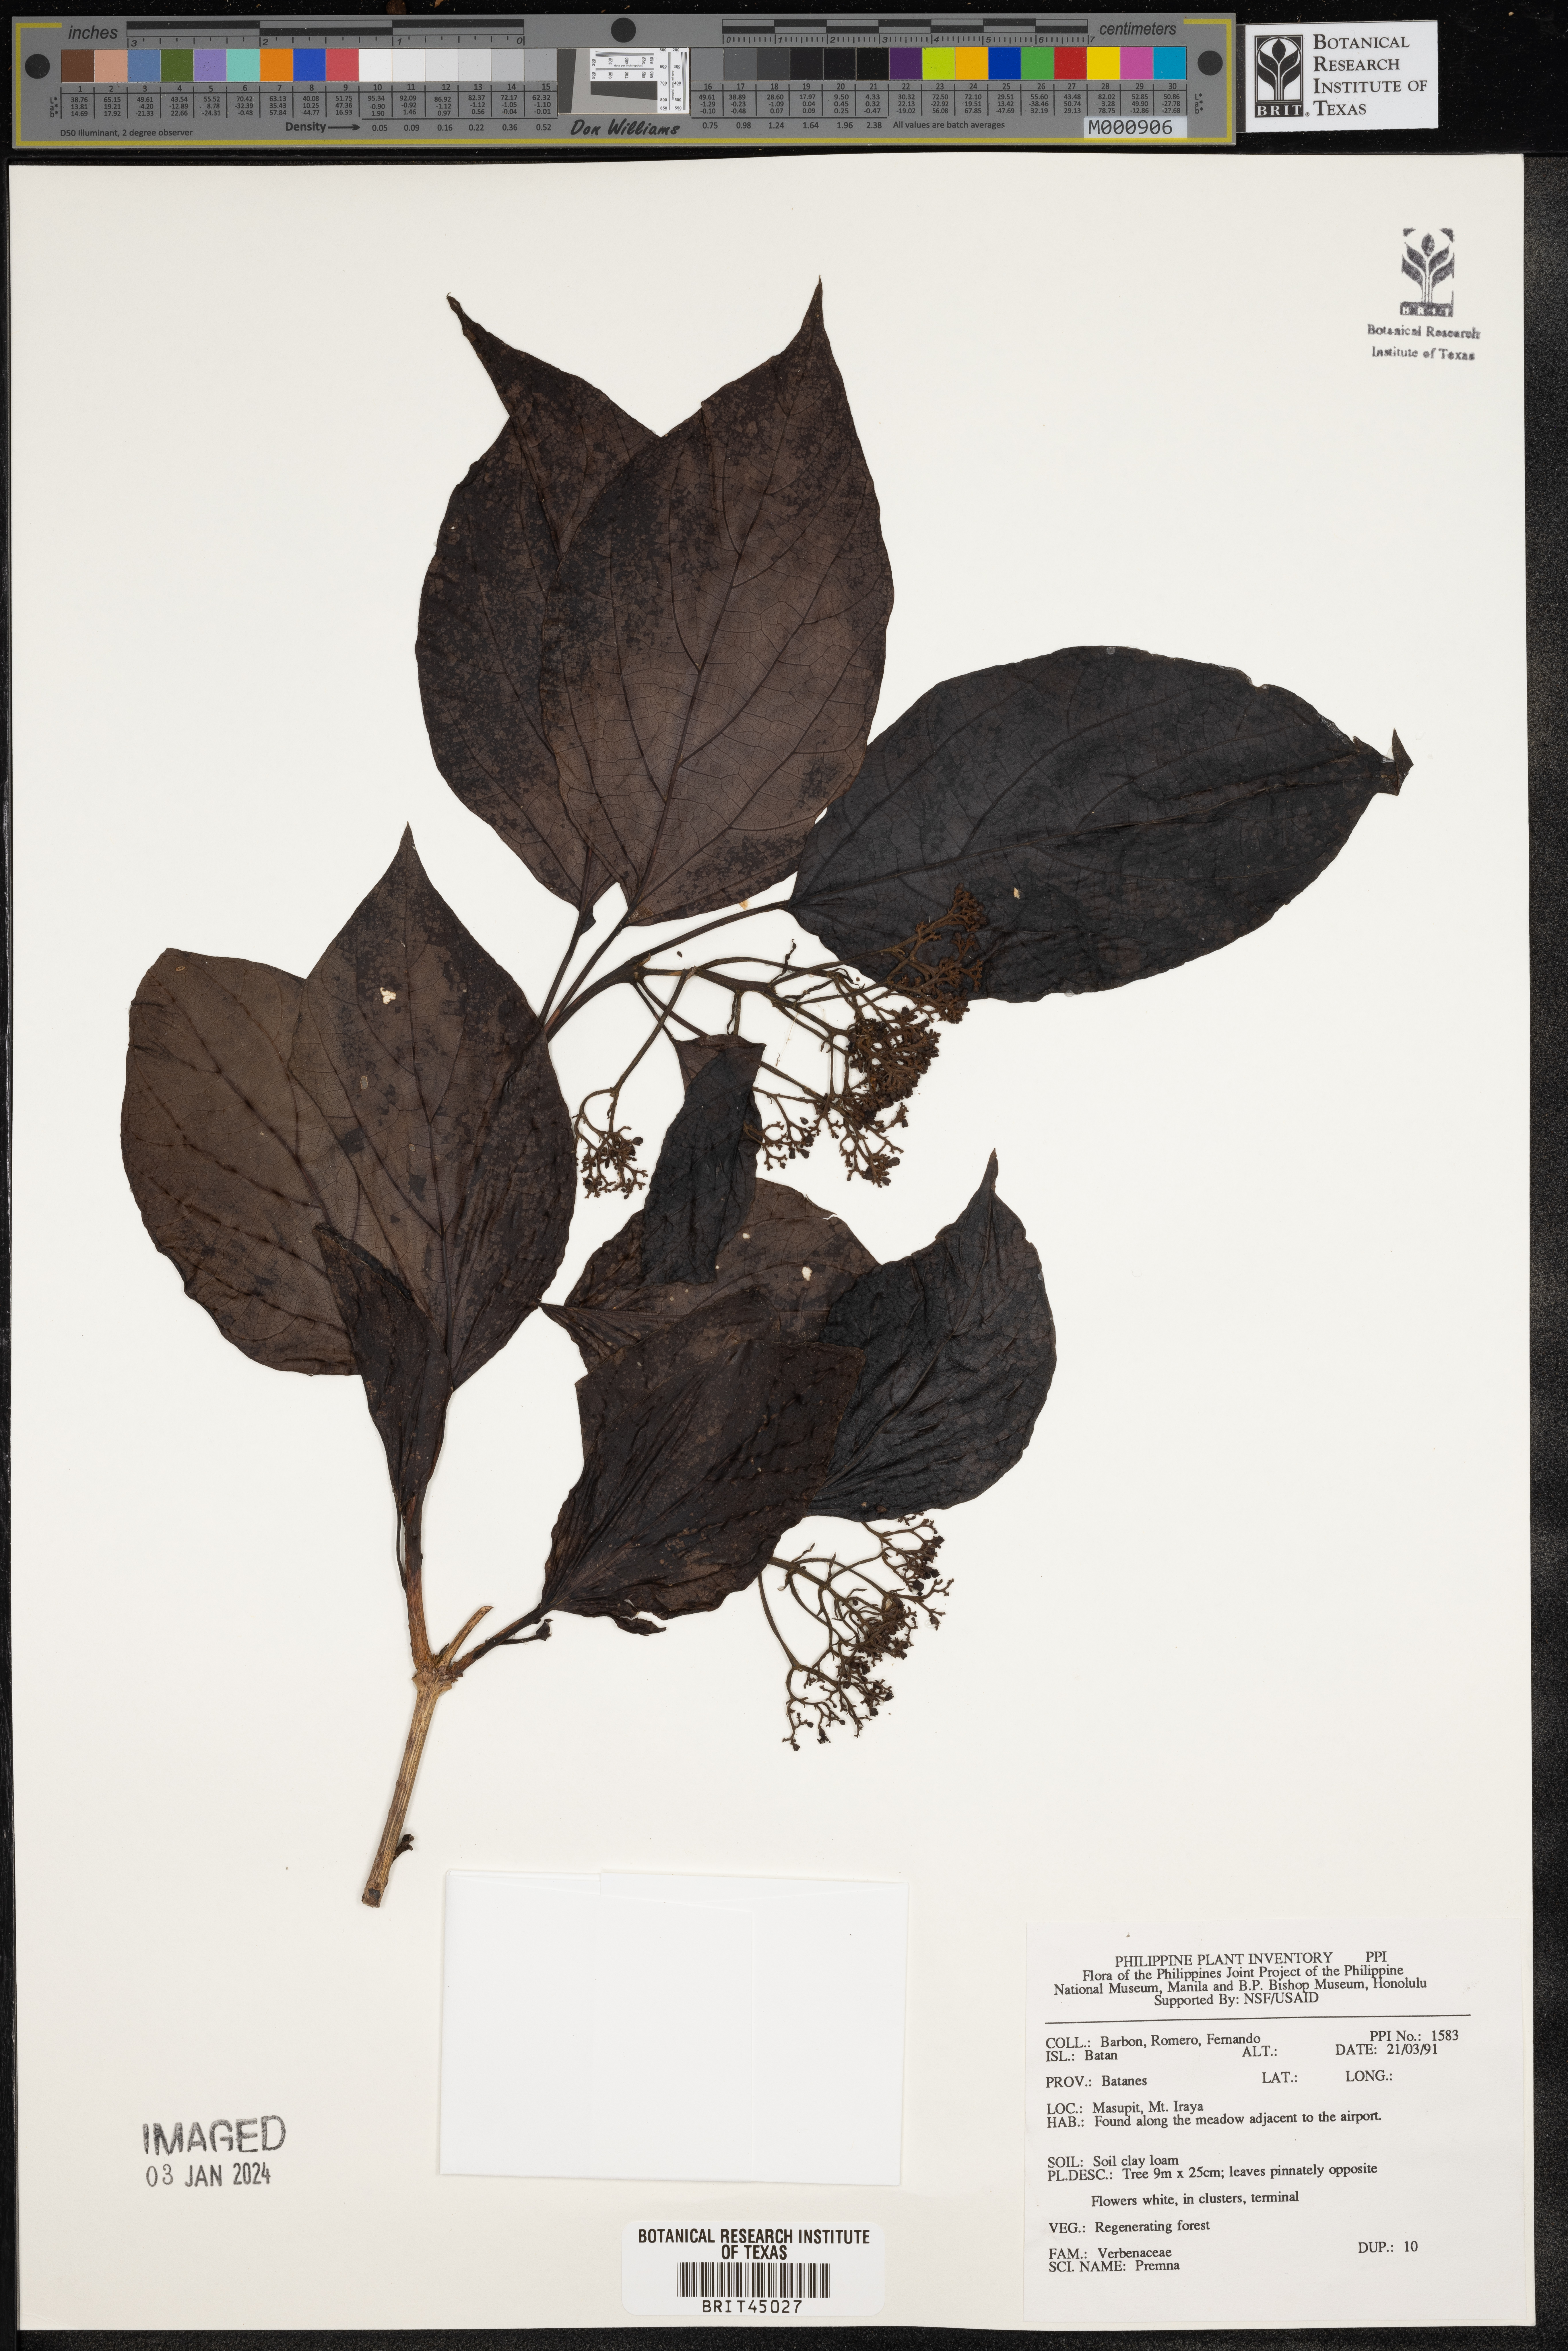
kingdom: Plantae
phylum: Tracheophyta
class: Magnoliopsida
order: Lamiales
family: Lamiaceae
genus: Premna
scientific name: Premna
